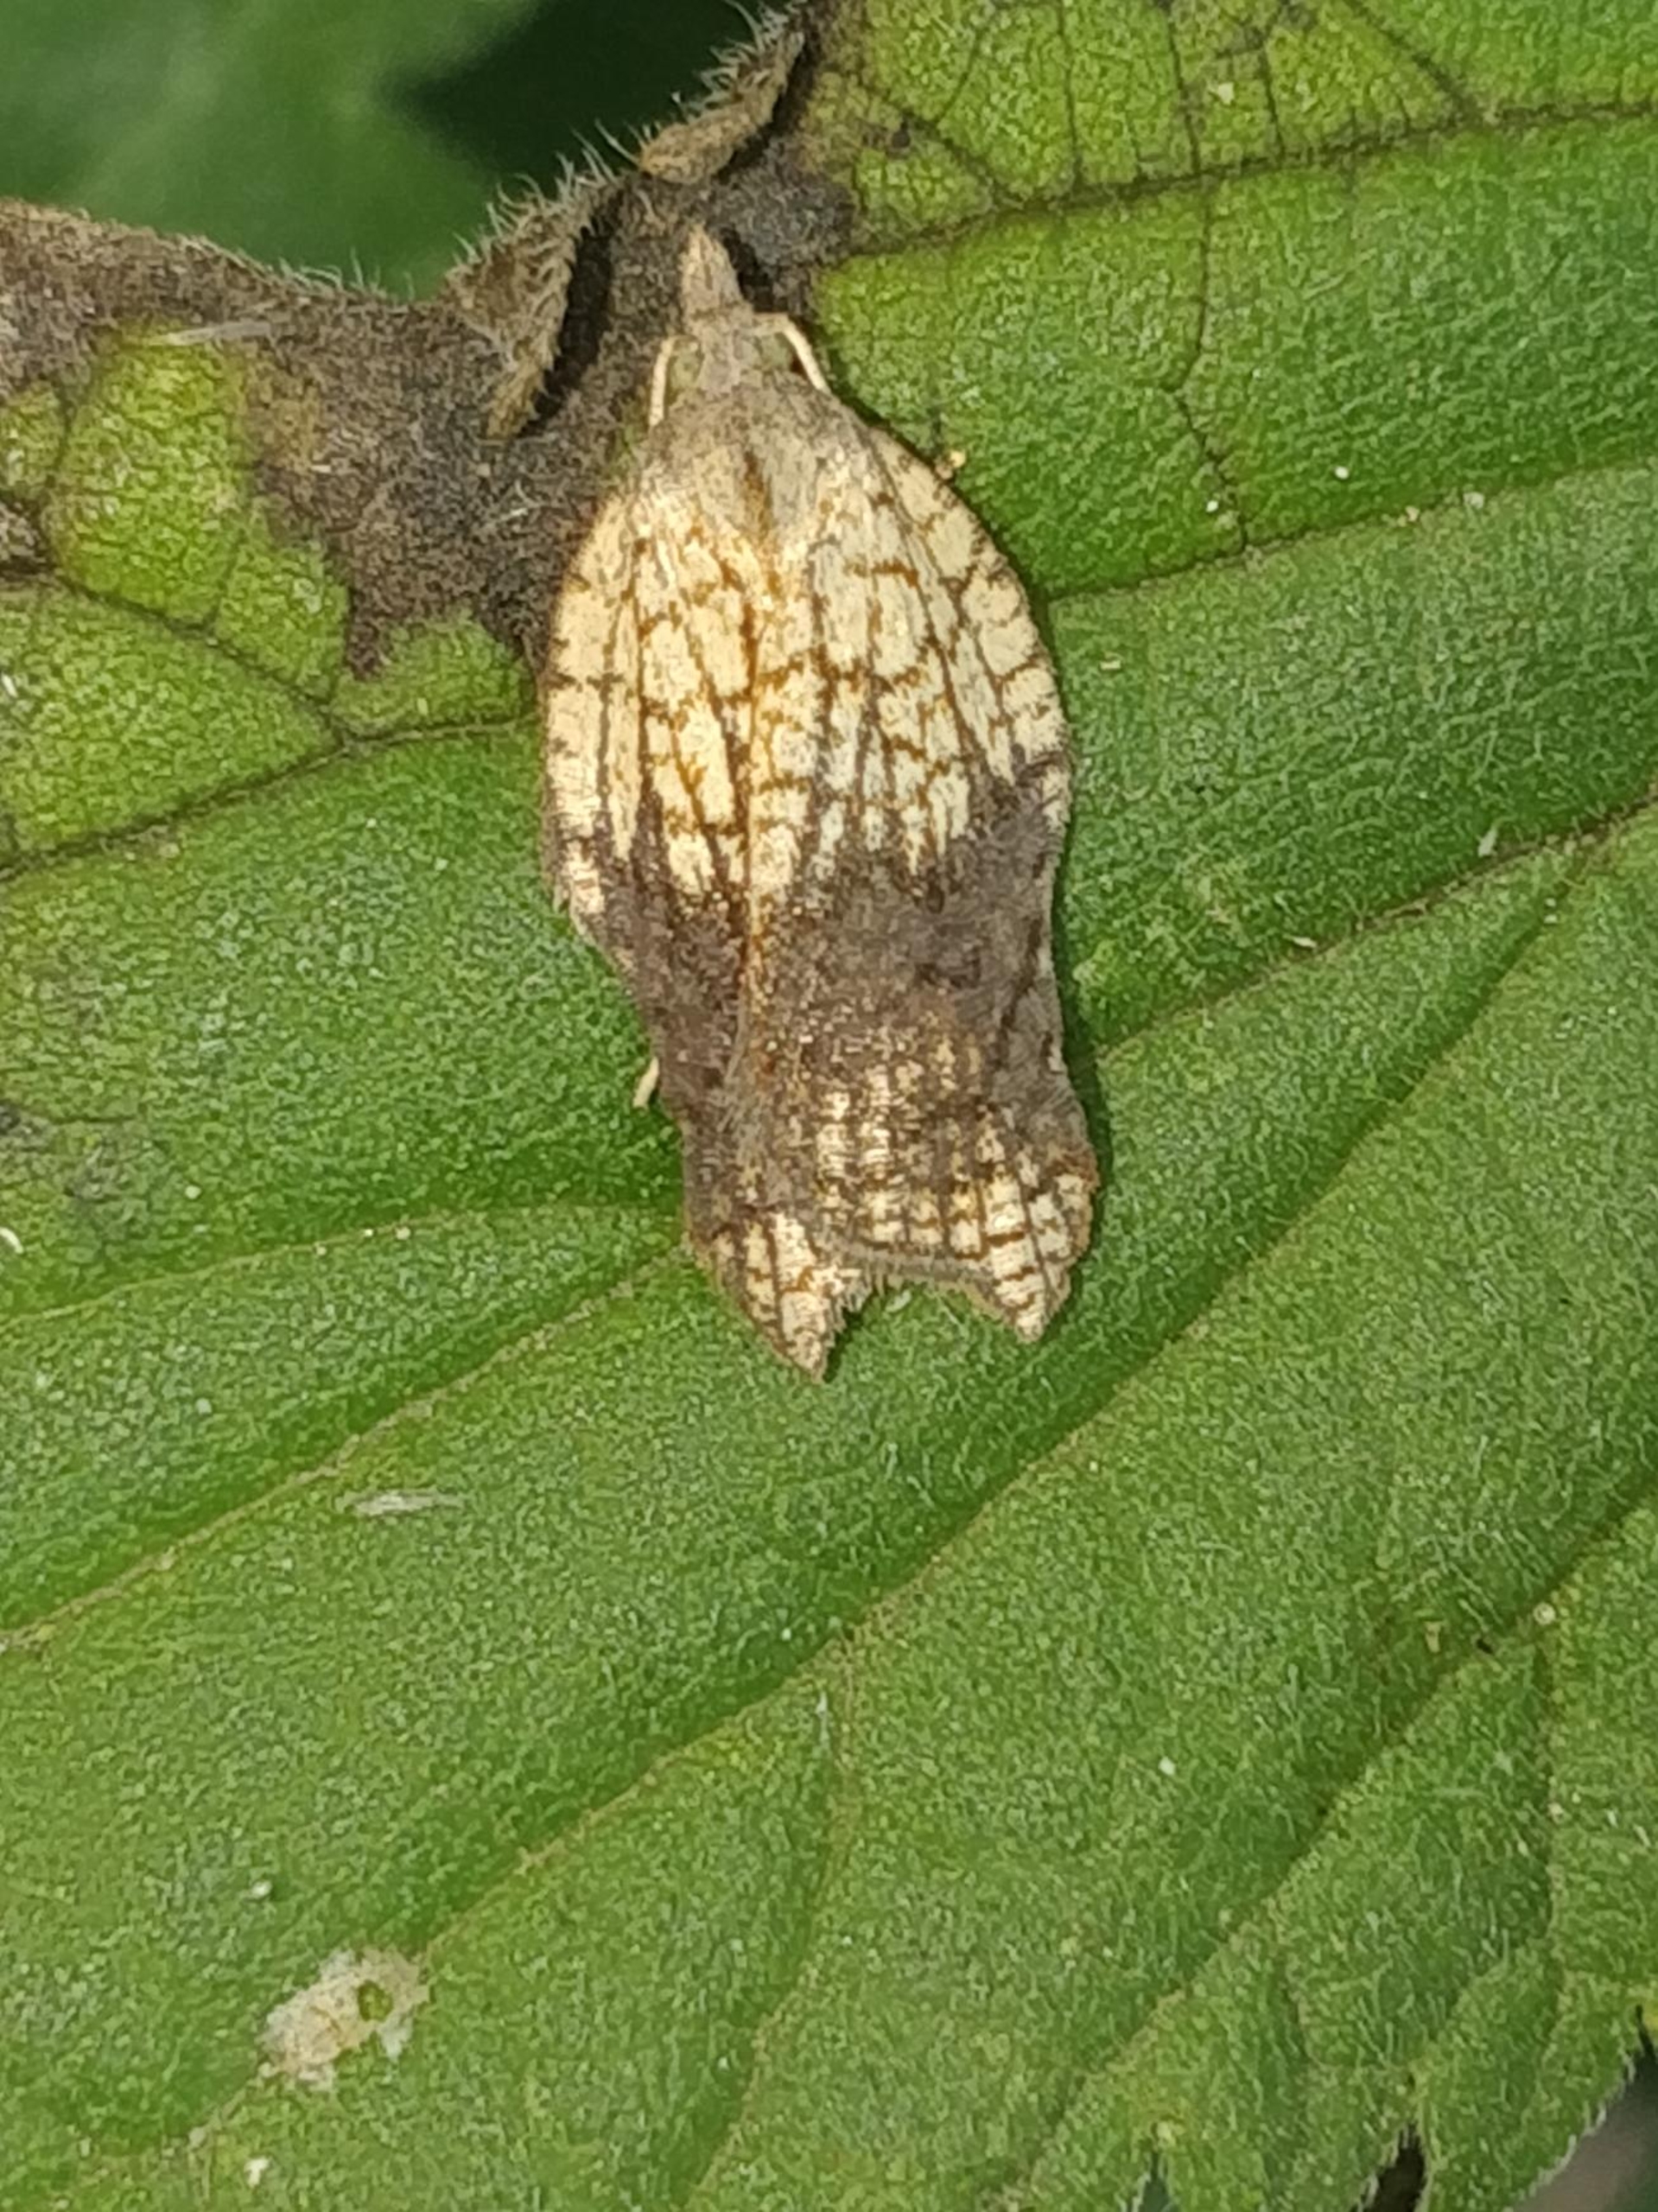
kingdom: Animalia
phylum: Arthropoda
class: Insecta
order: Lepidoptera
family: Tortricidae
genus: Acleris
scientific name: Acleris emargana
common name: Konkav pilevikler
